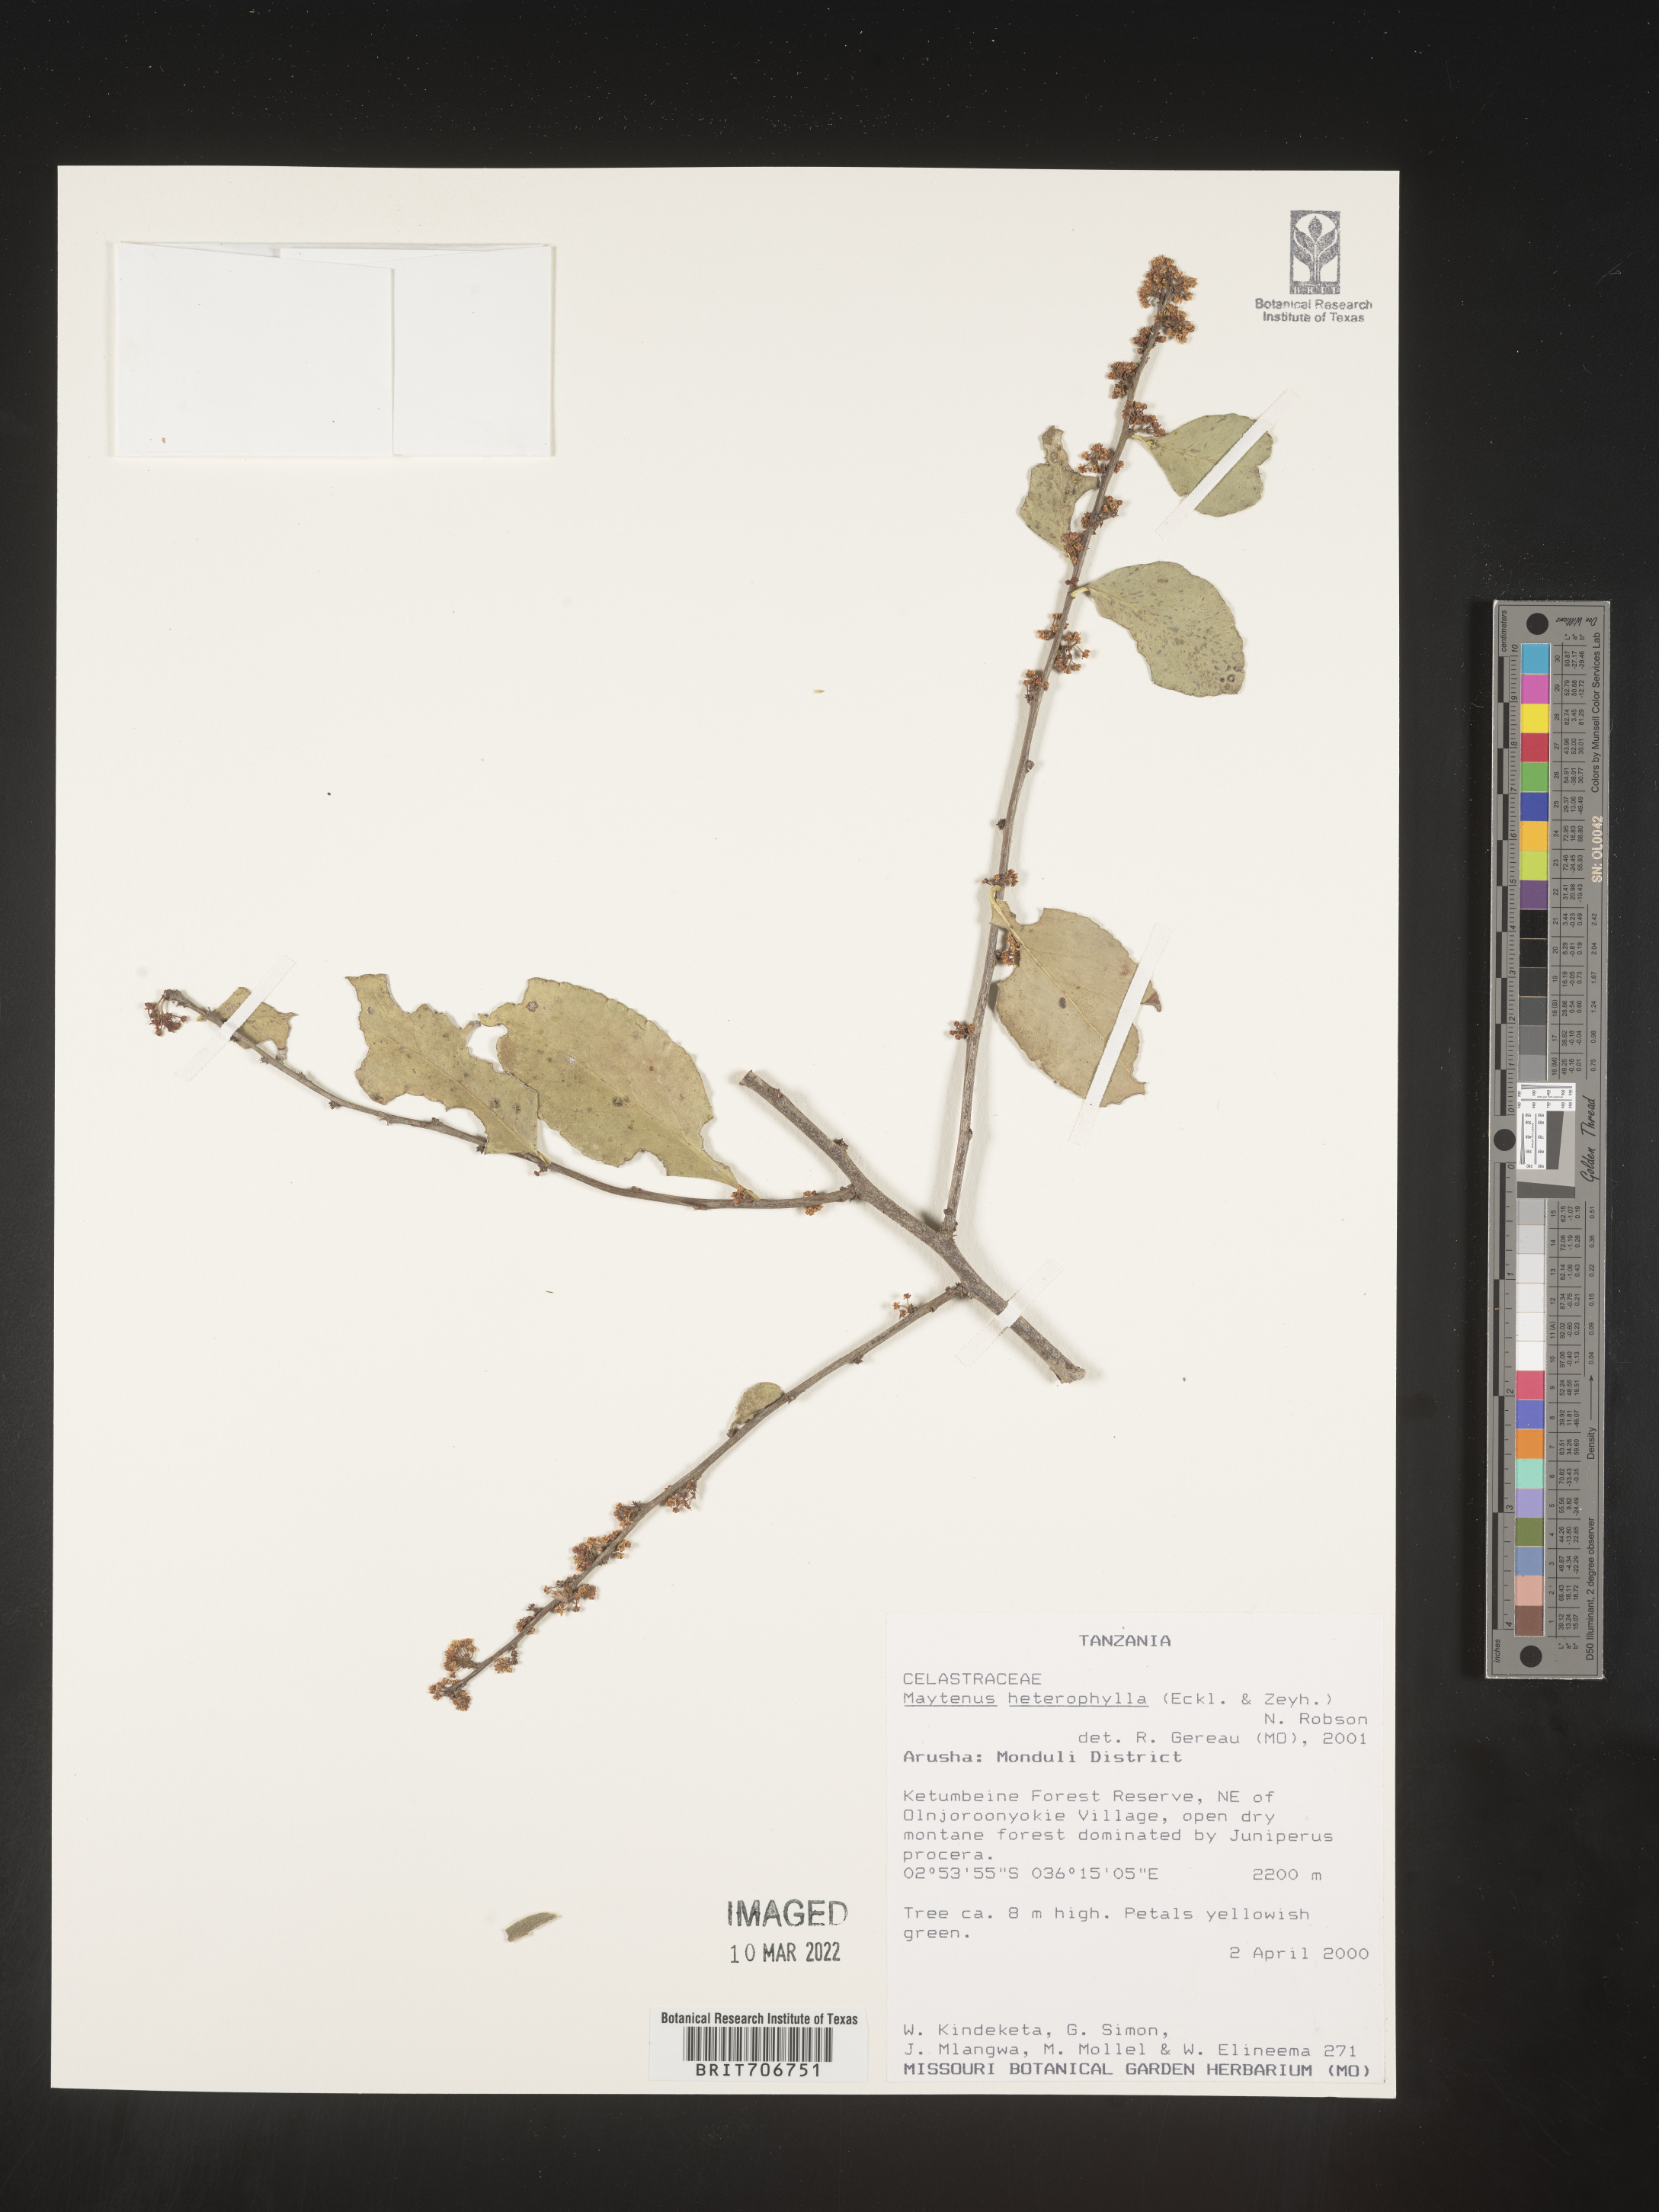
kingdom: Plantae
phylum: Tracheophyta
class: Magnoliopsida
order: Celastrales
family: Celastraceae
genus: Maytenus
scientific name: Maytenus
